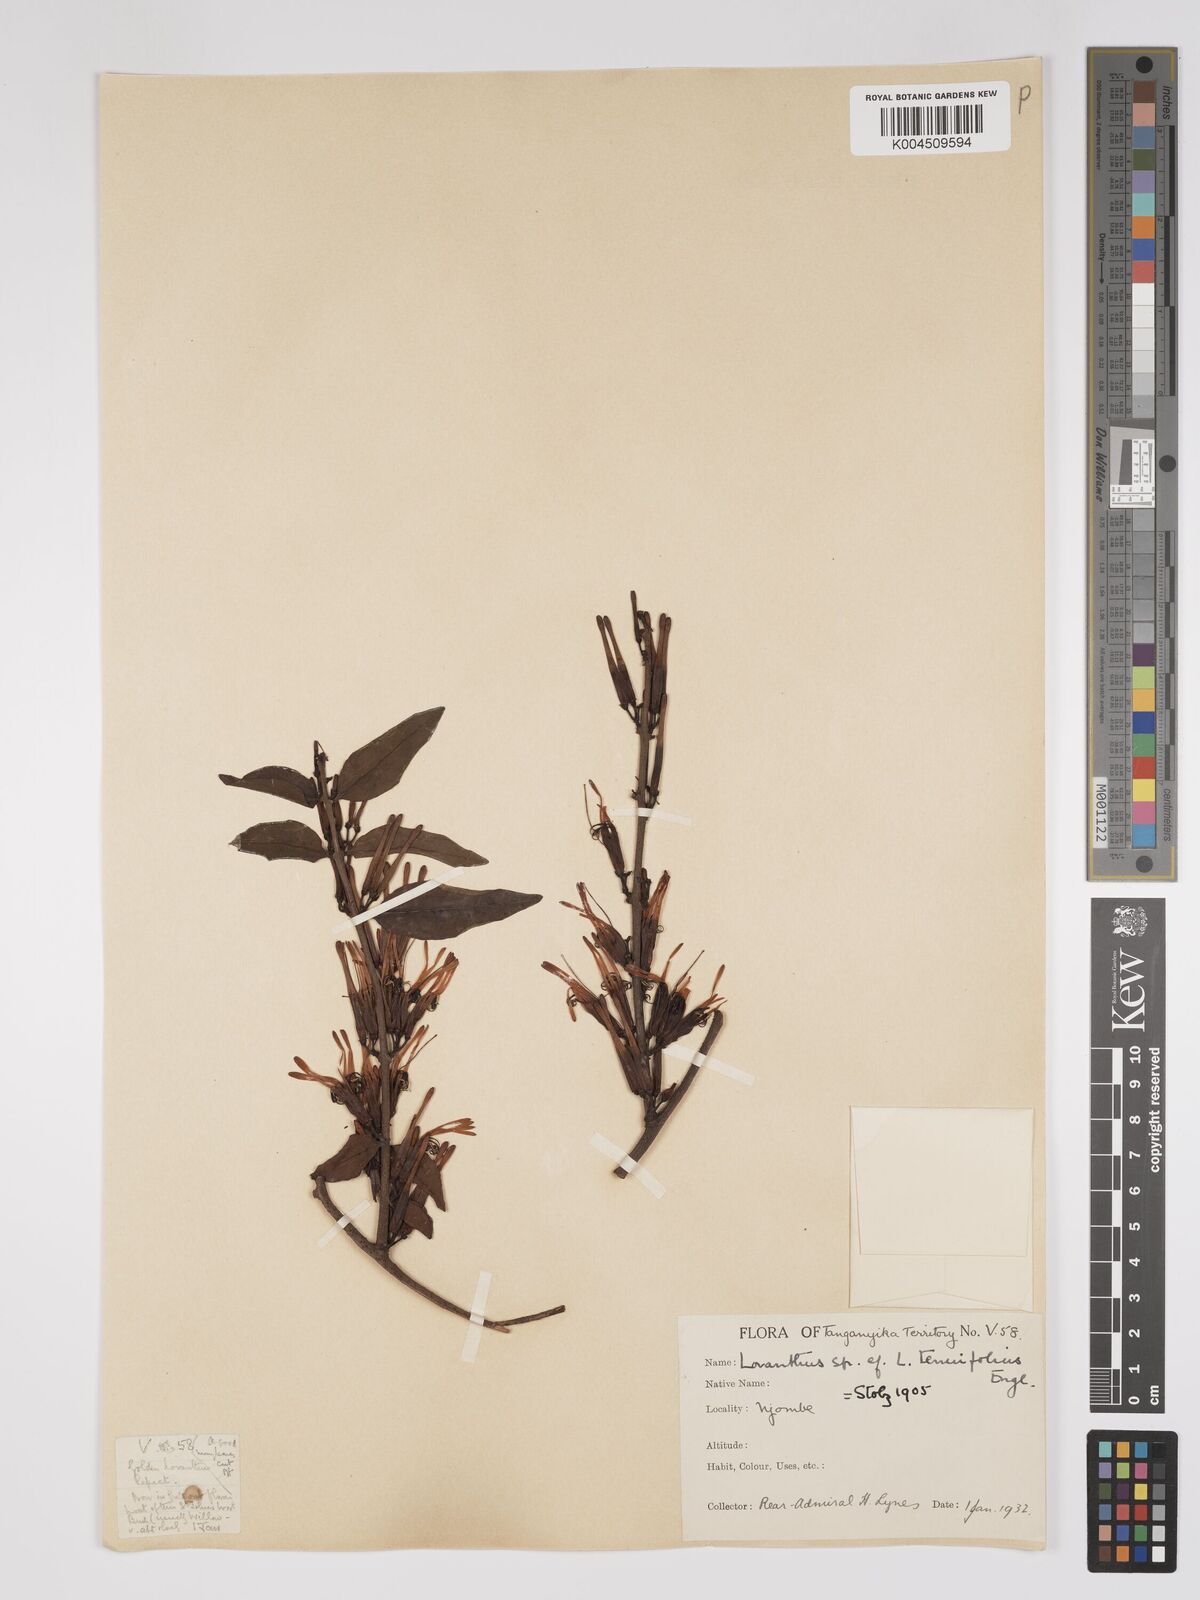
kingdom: Plantae
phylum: Tracheophyta
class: Magnoliopsida
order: Santalales
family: Loranthaceae
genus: Englerina
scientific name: Englerina inaequilatera
